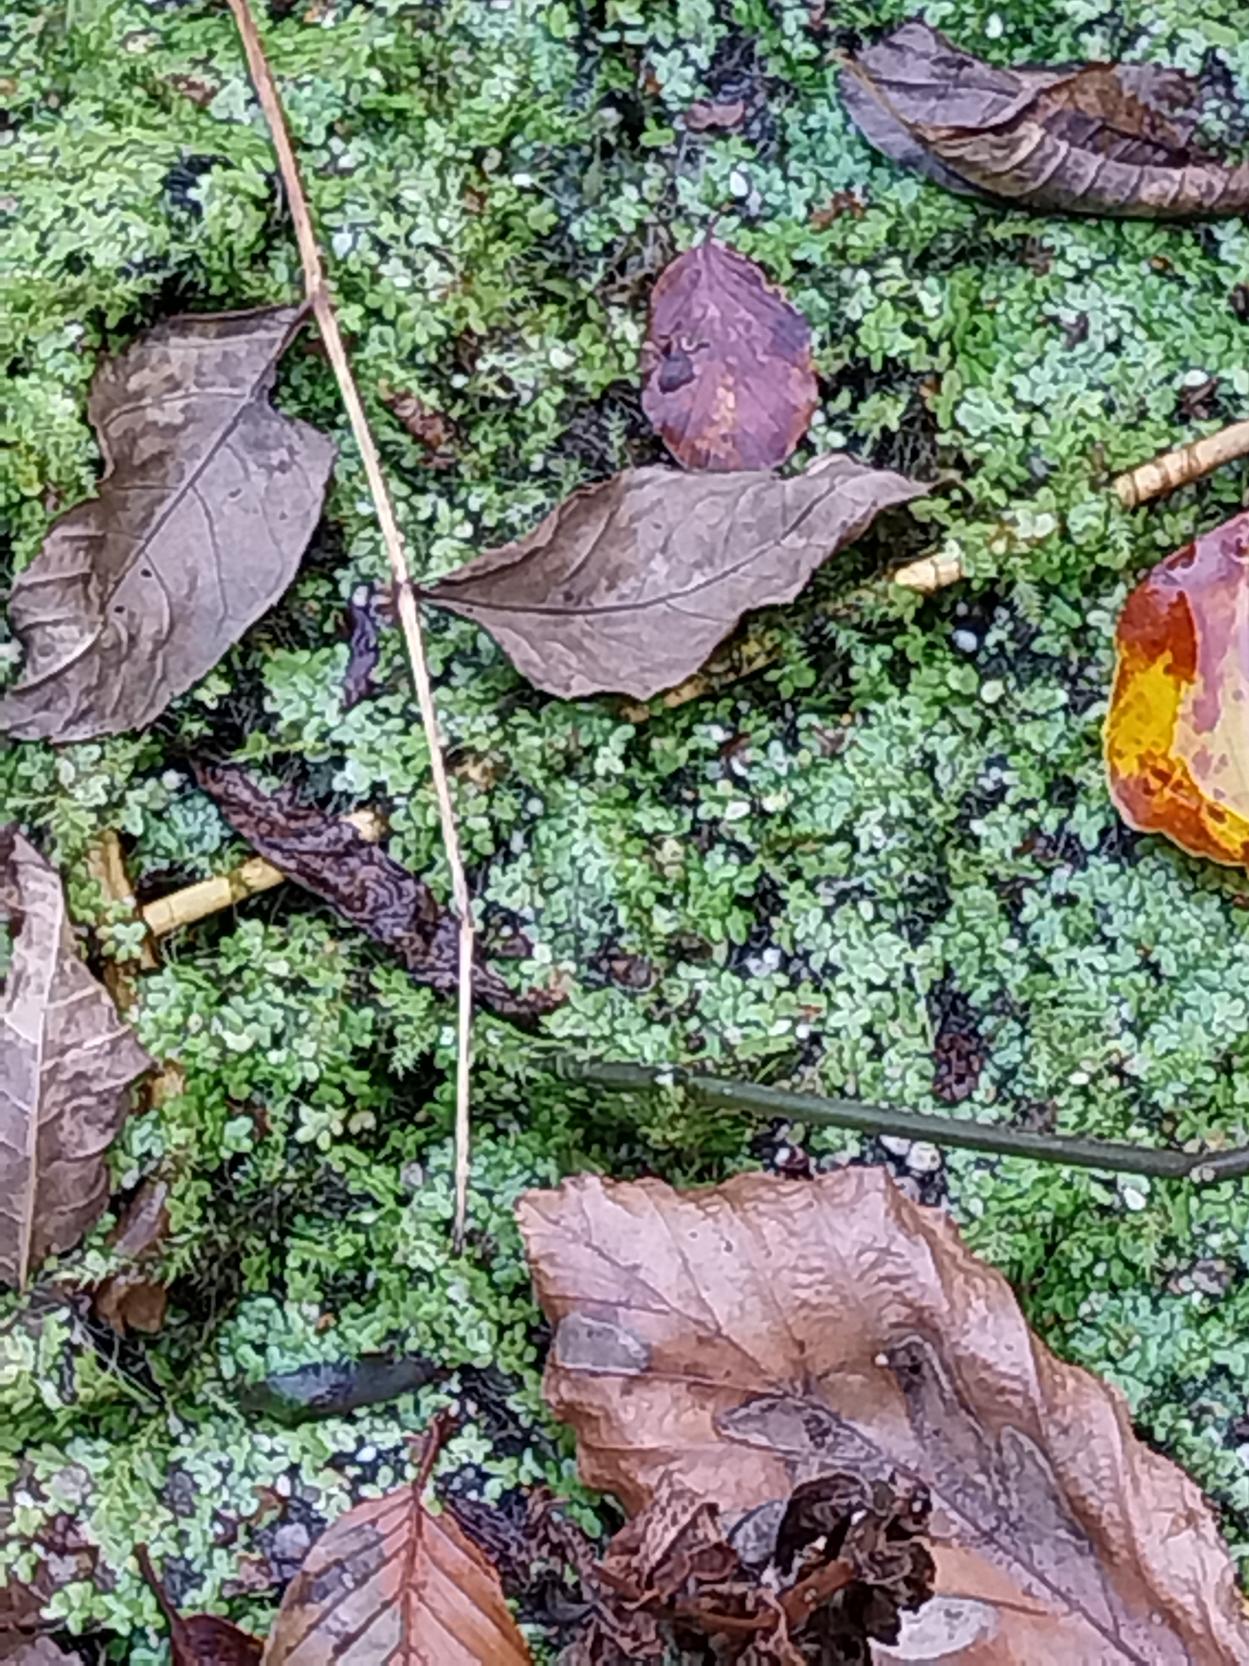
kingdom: Plantae
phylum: Tracheophyta
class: Liliopsida
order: Alismatales
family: Araceae
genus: Lemna
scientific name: Lemna minor
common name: Liden andemad
